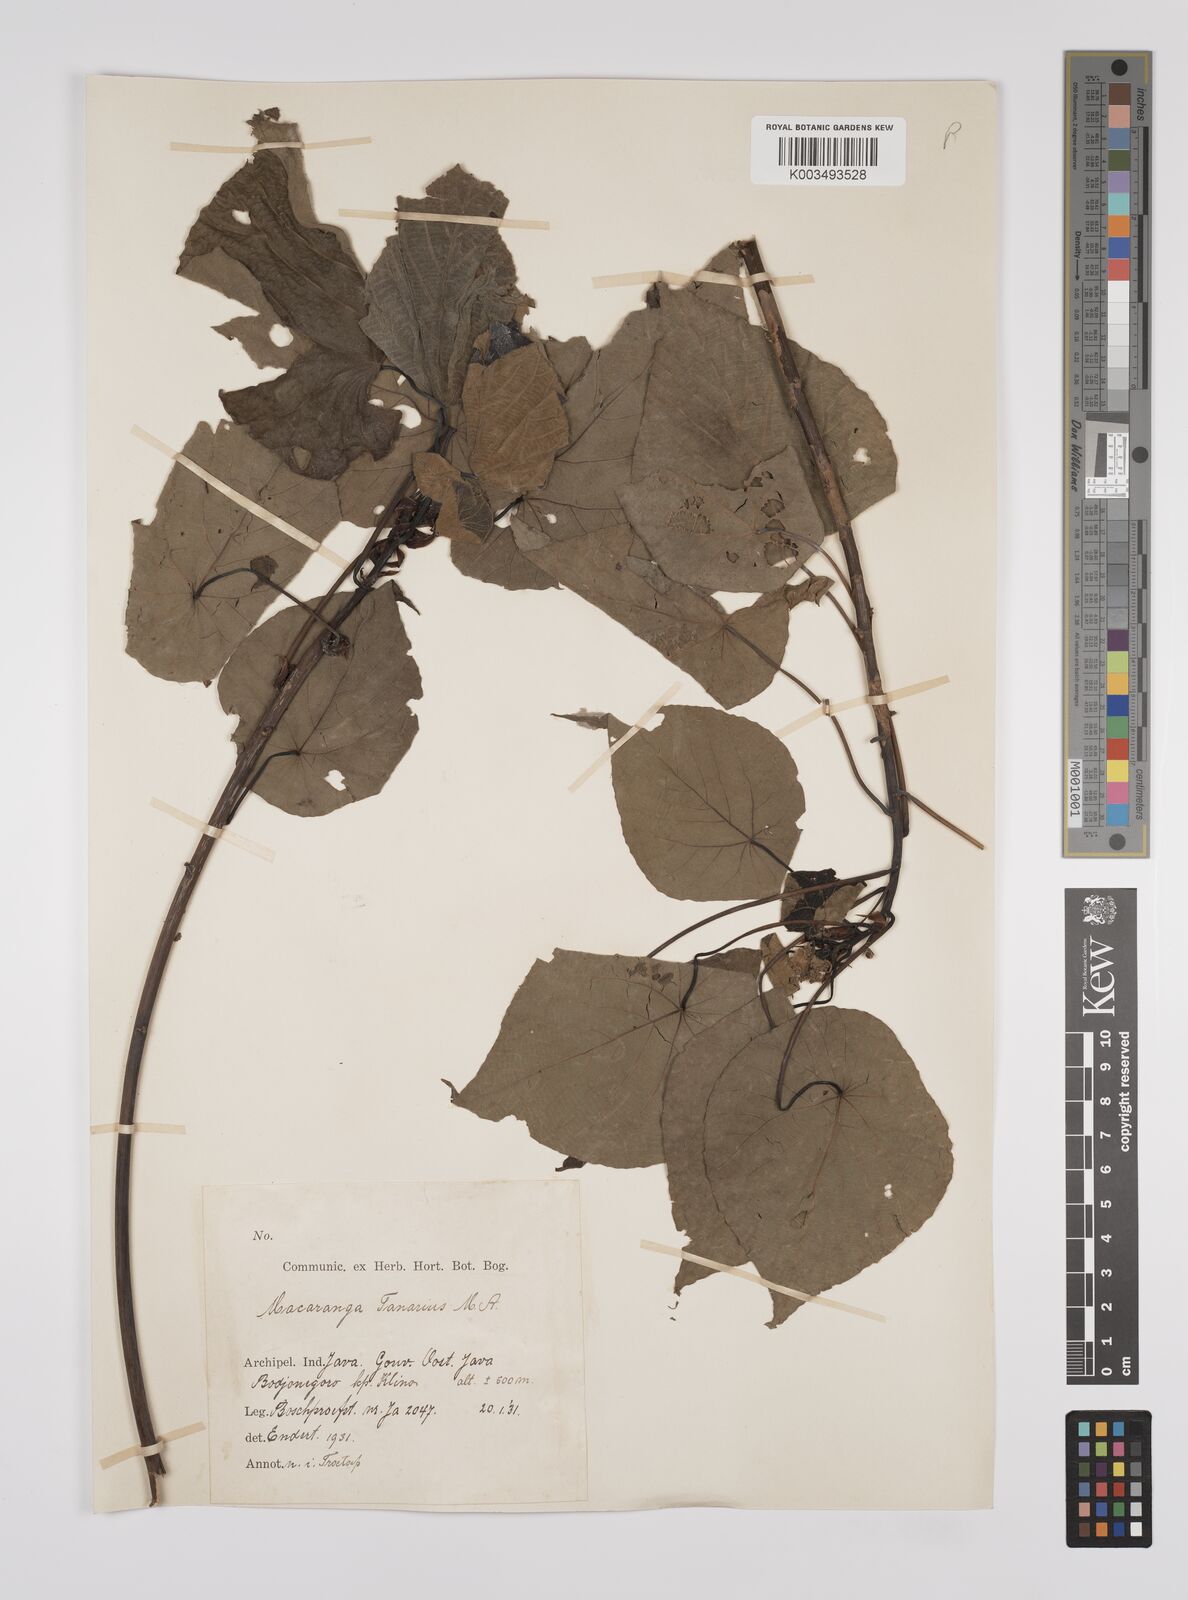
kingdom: Plantae
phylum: Tracheophyta
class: Magnoliopsida
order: Malpighiales
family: Euphorbiaceae
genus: Macaranga
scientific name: Macaranga tanarius
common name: Parasol leaf tree
